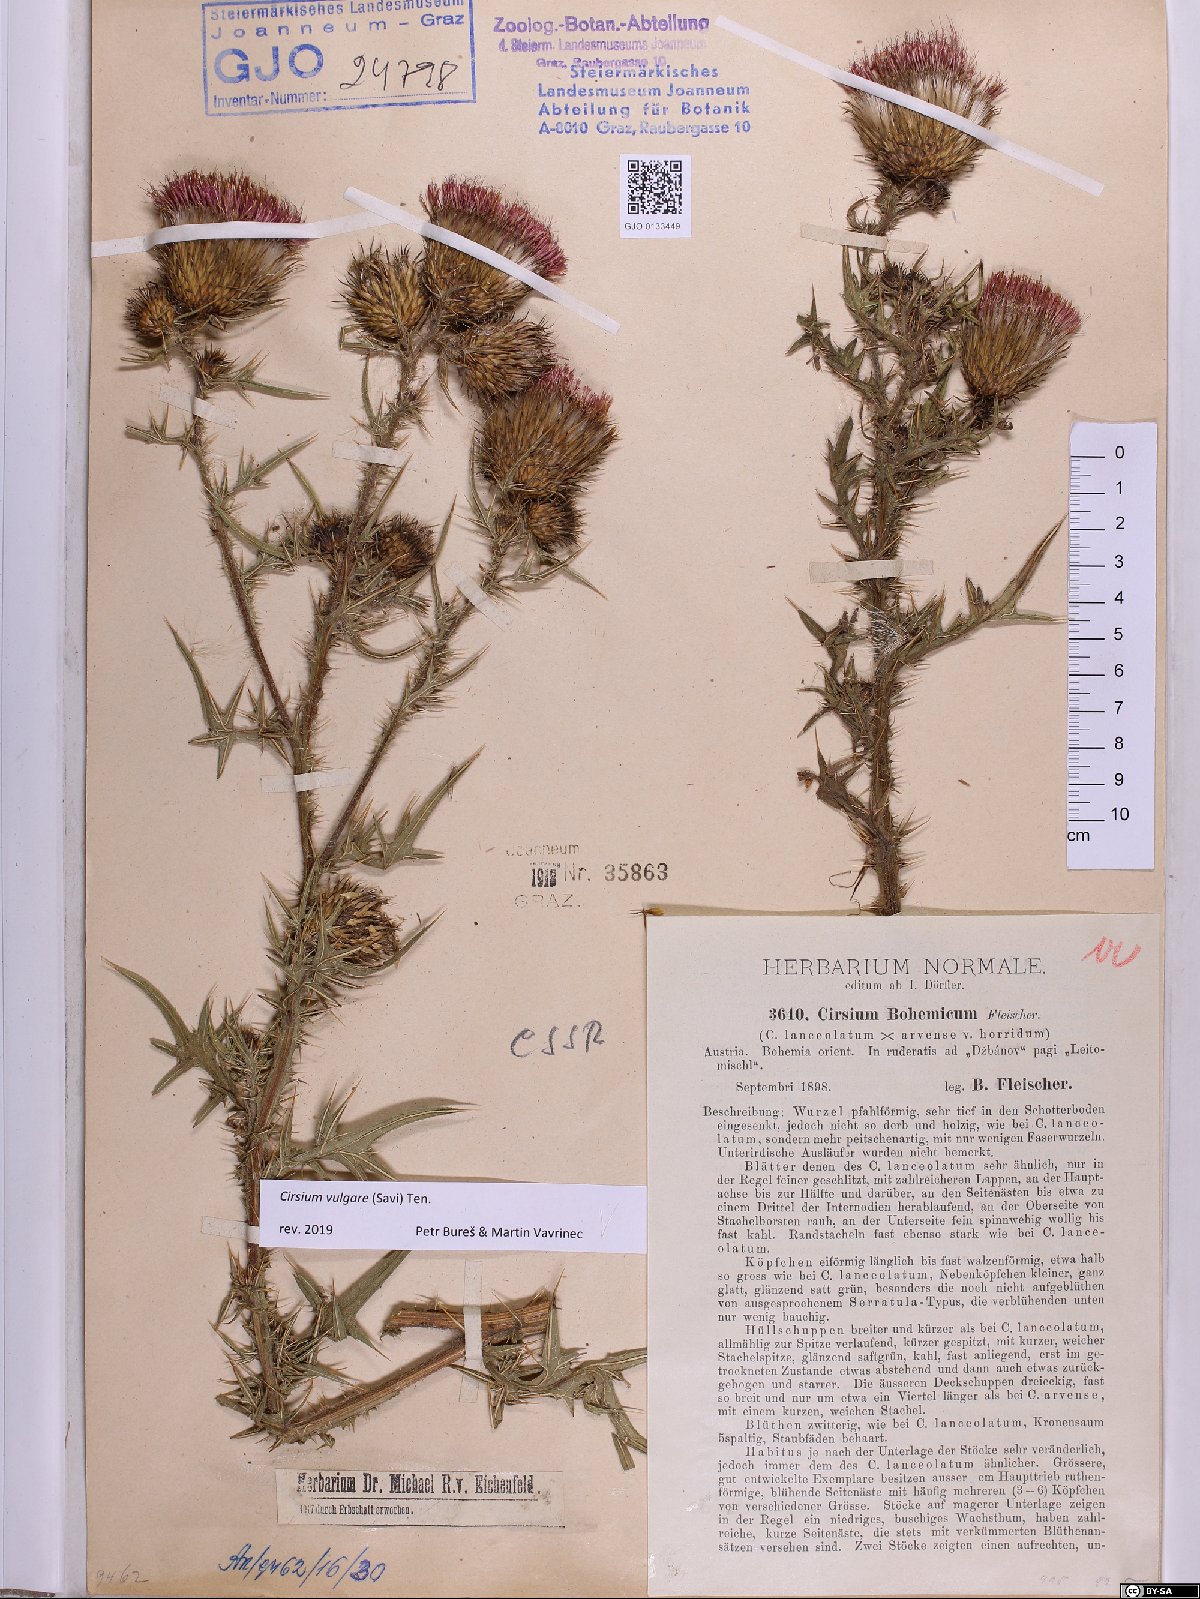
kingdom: Plantae
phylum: Tracheophyta
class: Magnoliopsida
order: Asterales
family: Asteraceae
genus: Cirsium
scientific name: Cirsium vulgare
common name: Bull thistle
